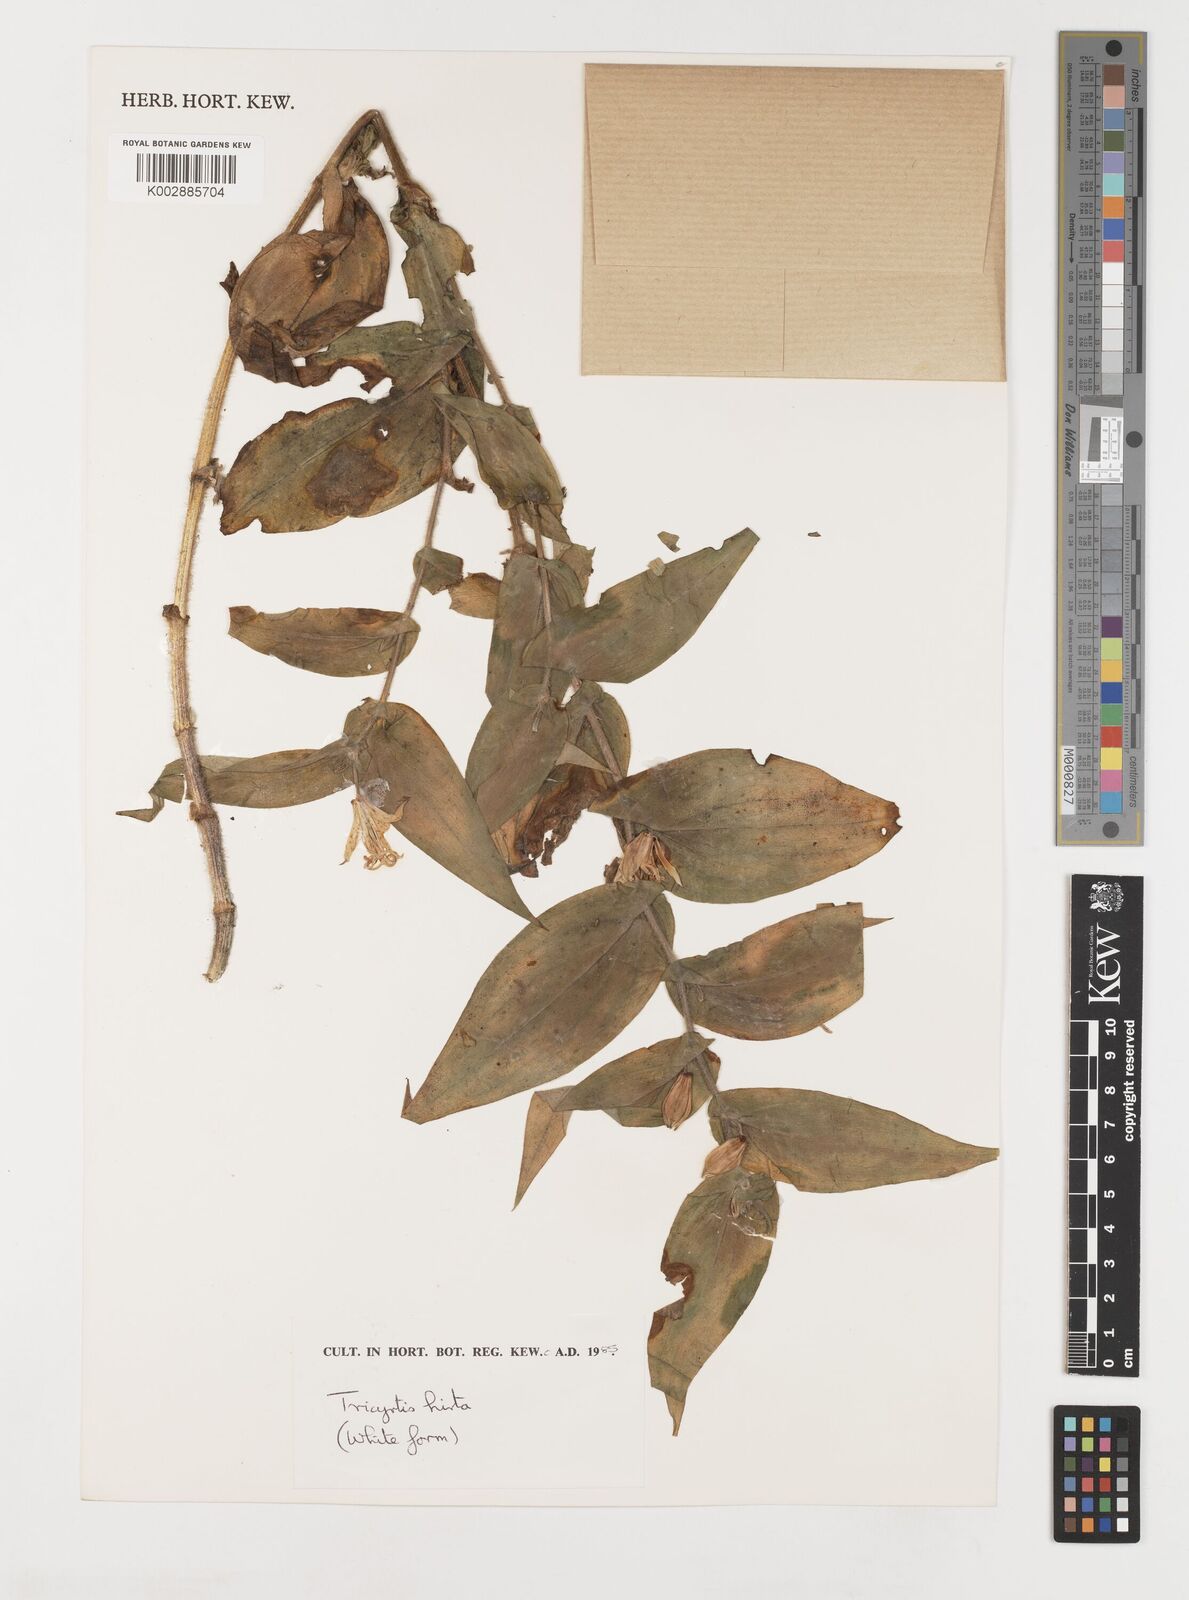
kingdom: Plantae
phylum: Tracheophyta
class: Liliopsida
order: Liliales
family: Liliaceae
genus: Tricyrtis
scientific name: Tricyrtis hirta
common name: Toadlily
